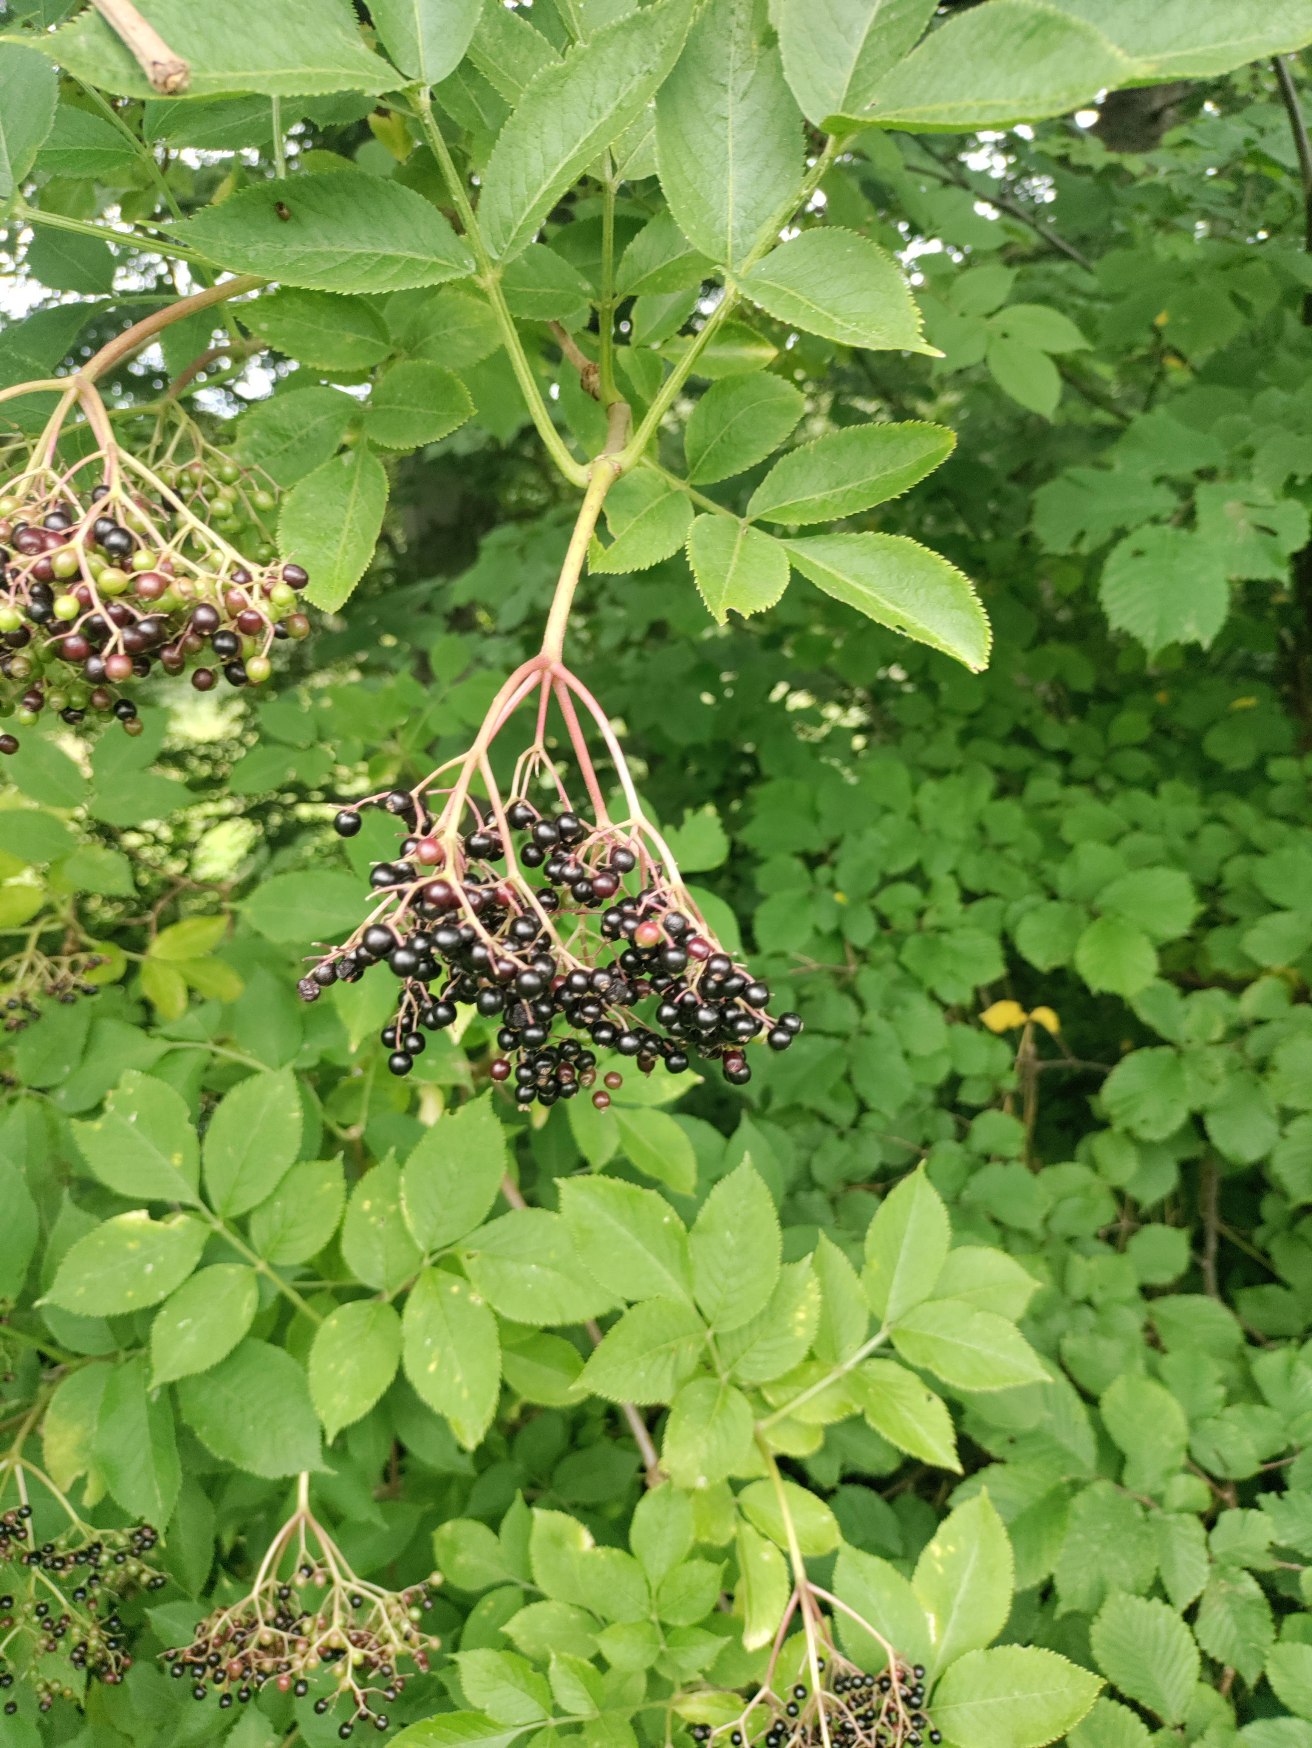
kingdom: Plantae
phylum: Tracheophyta
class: Magnoliopsida
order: Dipsacales
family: Viburnaceae
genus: Sambucus
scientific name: Sambucus nigra
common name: Almindelig hyld
